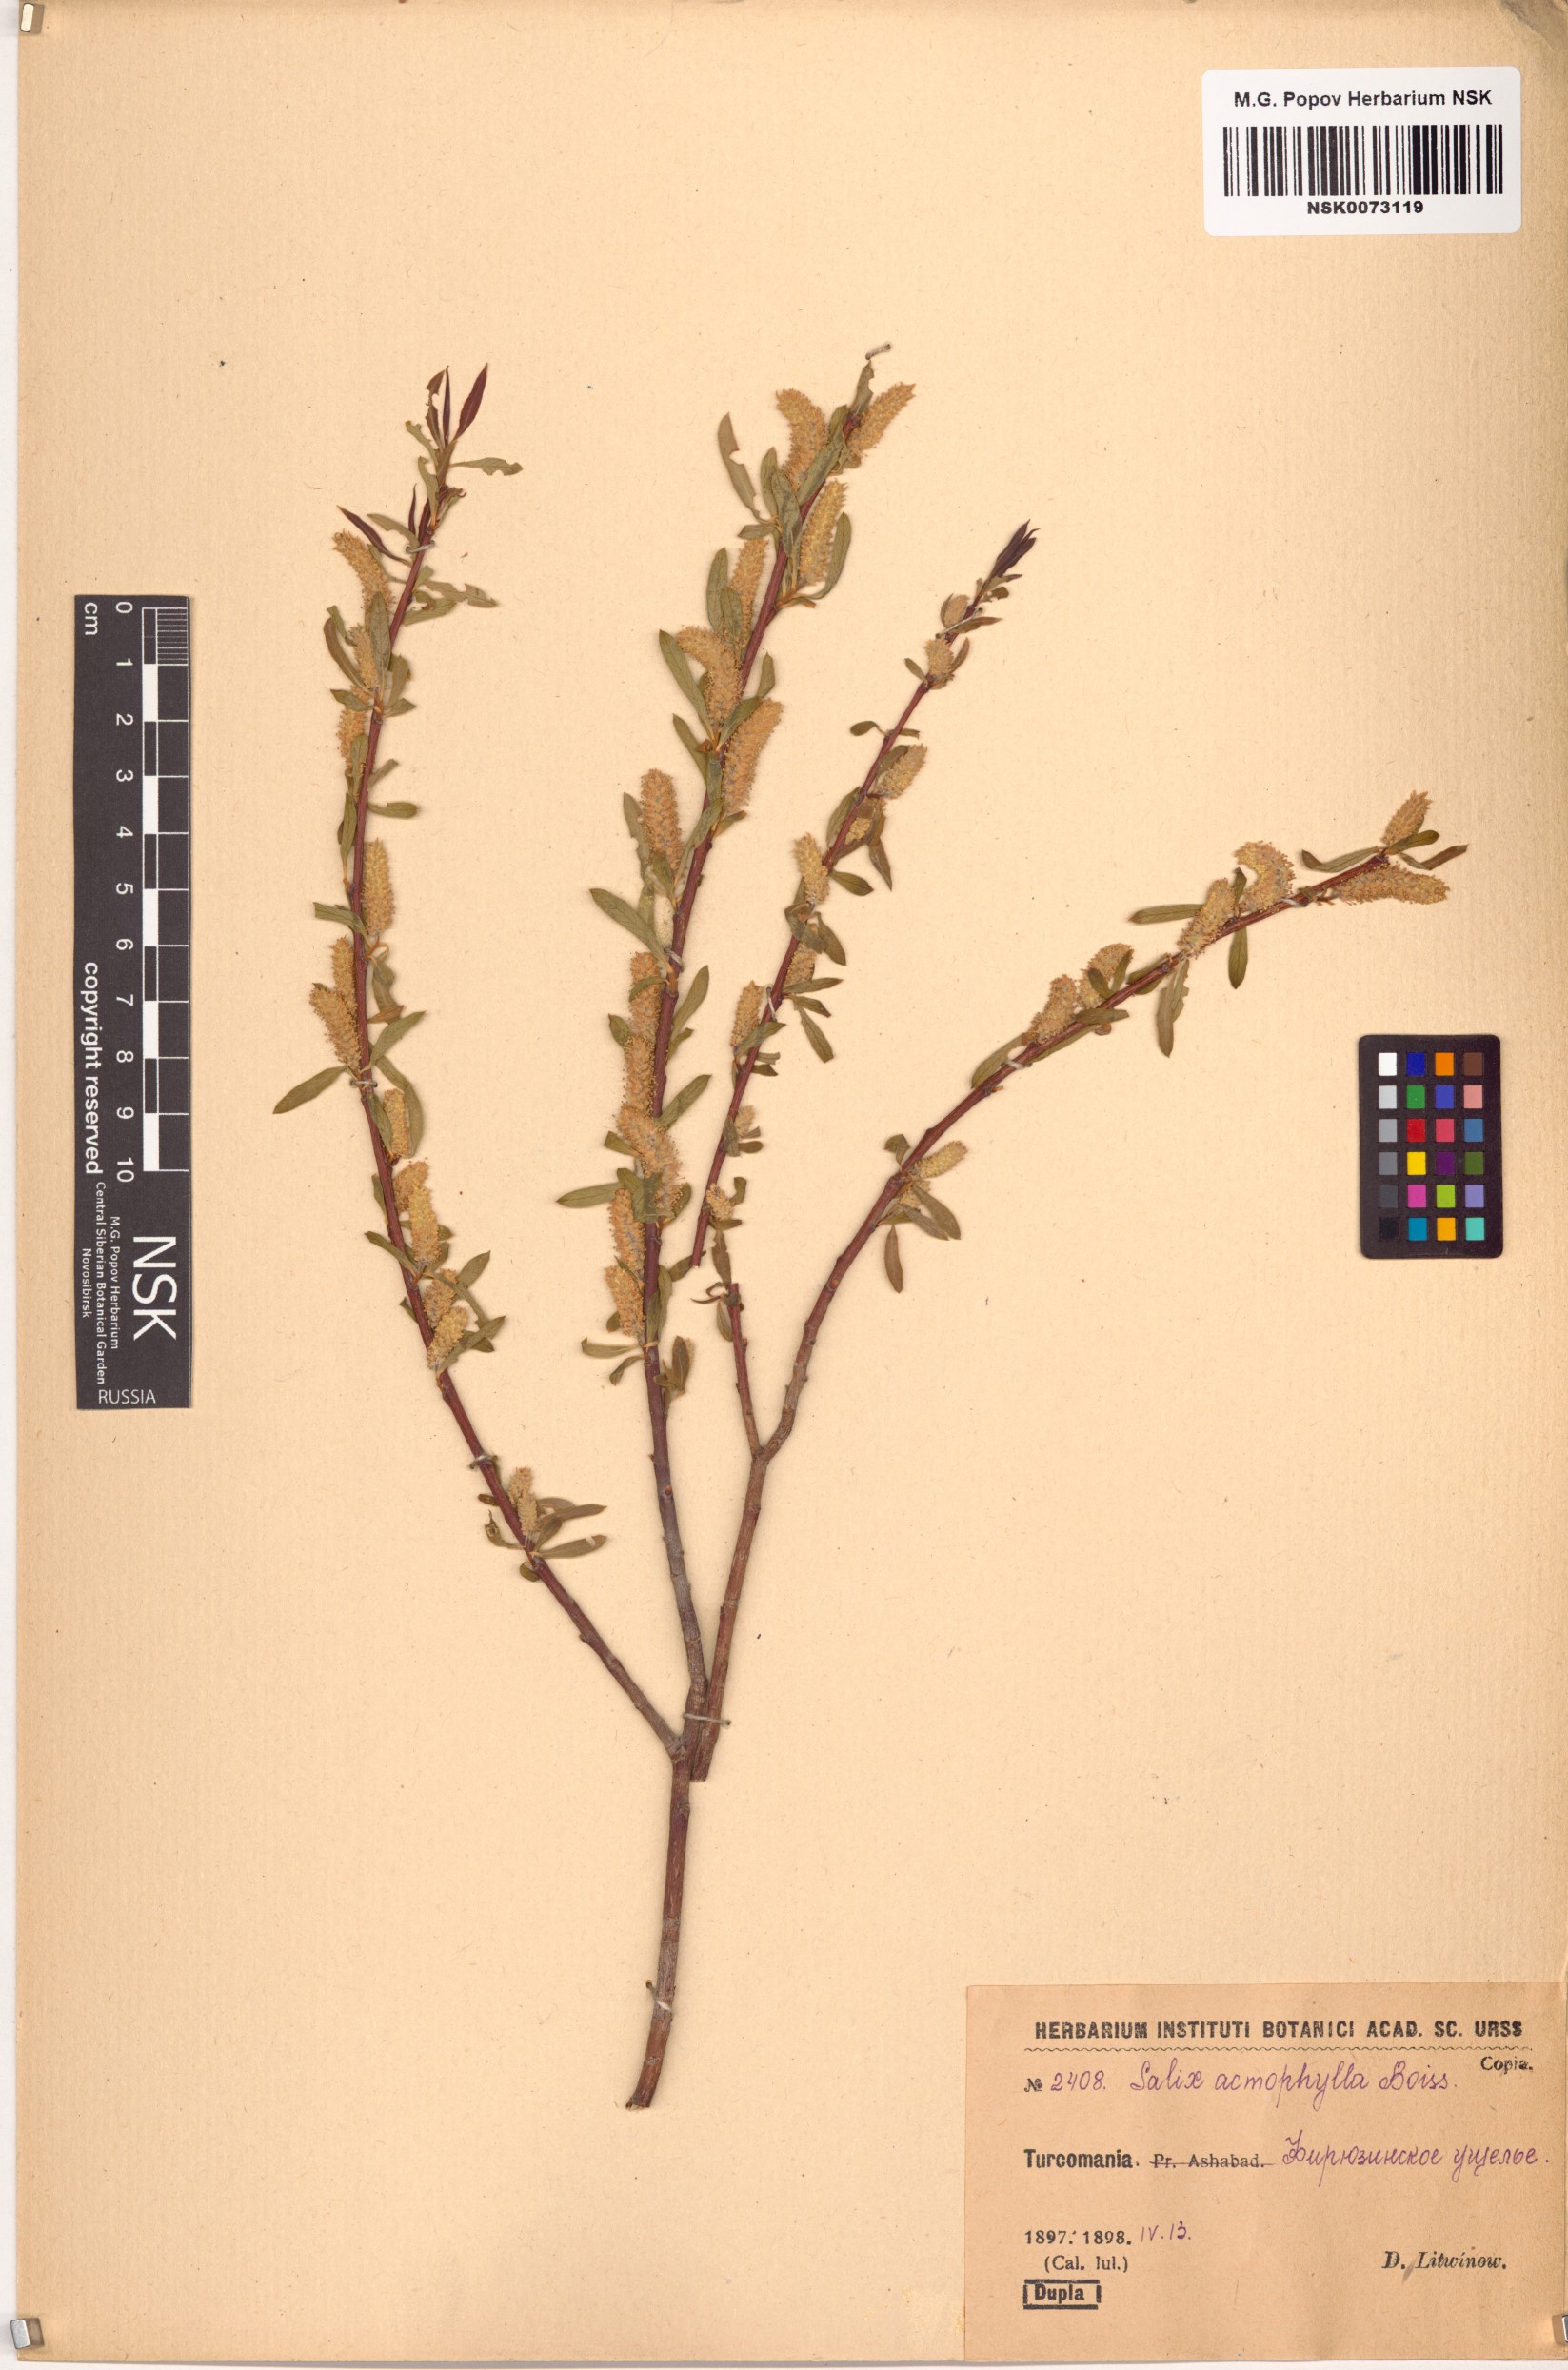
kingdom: Plantae
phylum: Tracheophyta
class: Magnoliopsida
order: Malpighiales
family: Salicaceae
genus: Salix
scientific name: Salix acmophylla
